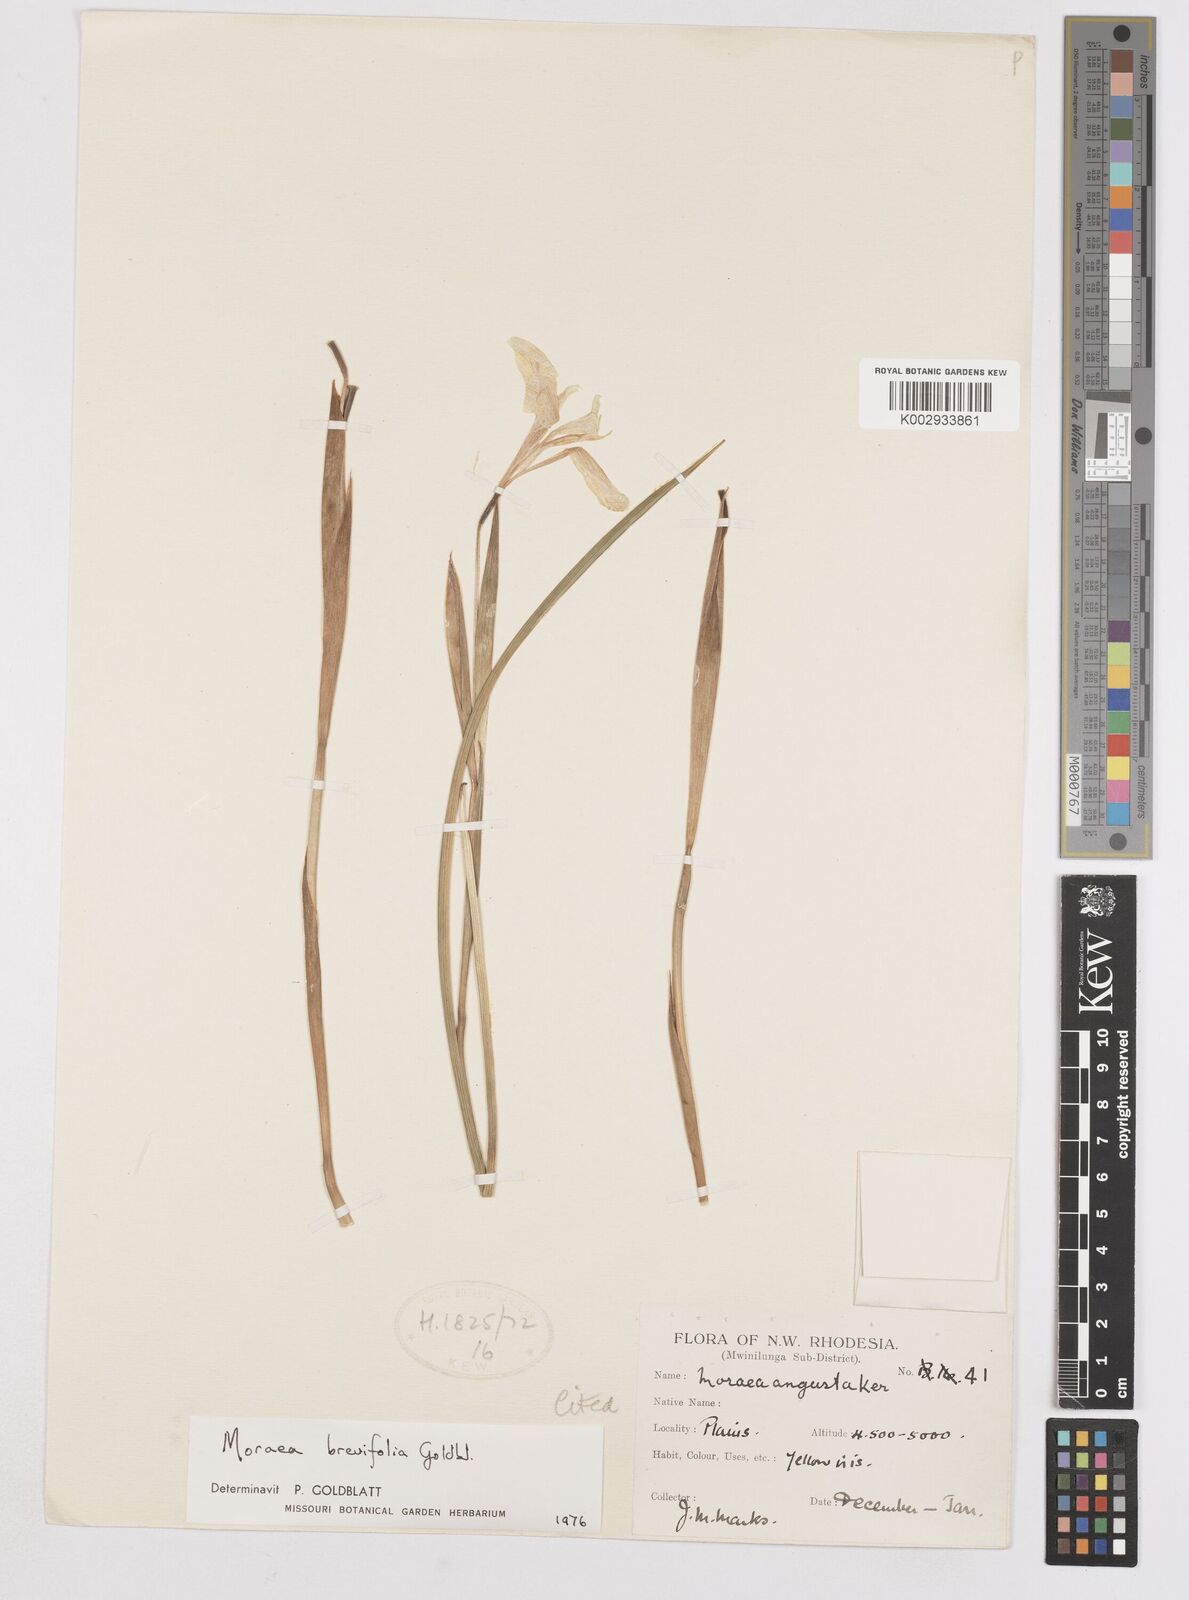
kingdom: Plantae
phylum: Tracheophyta
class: Liliopsida
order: Asparagales
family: Iridaceae
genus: Moraea
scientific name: Moraea brevifolia
